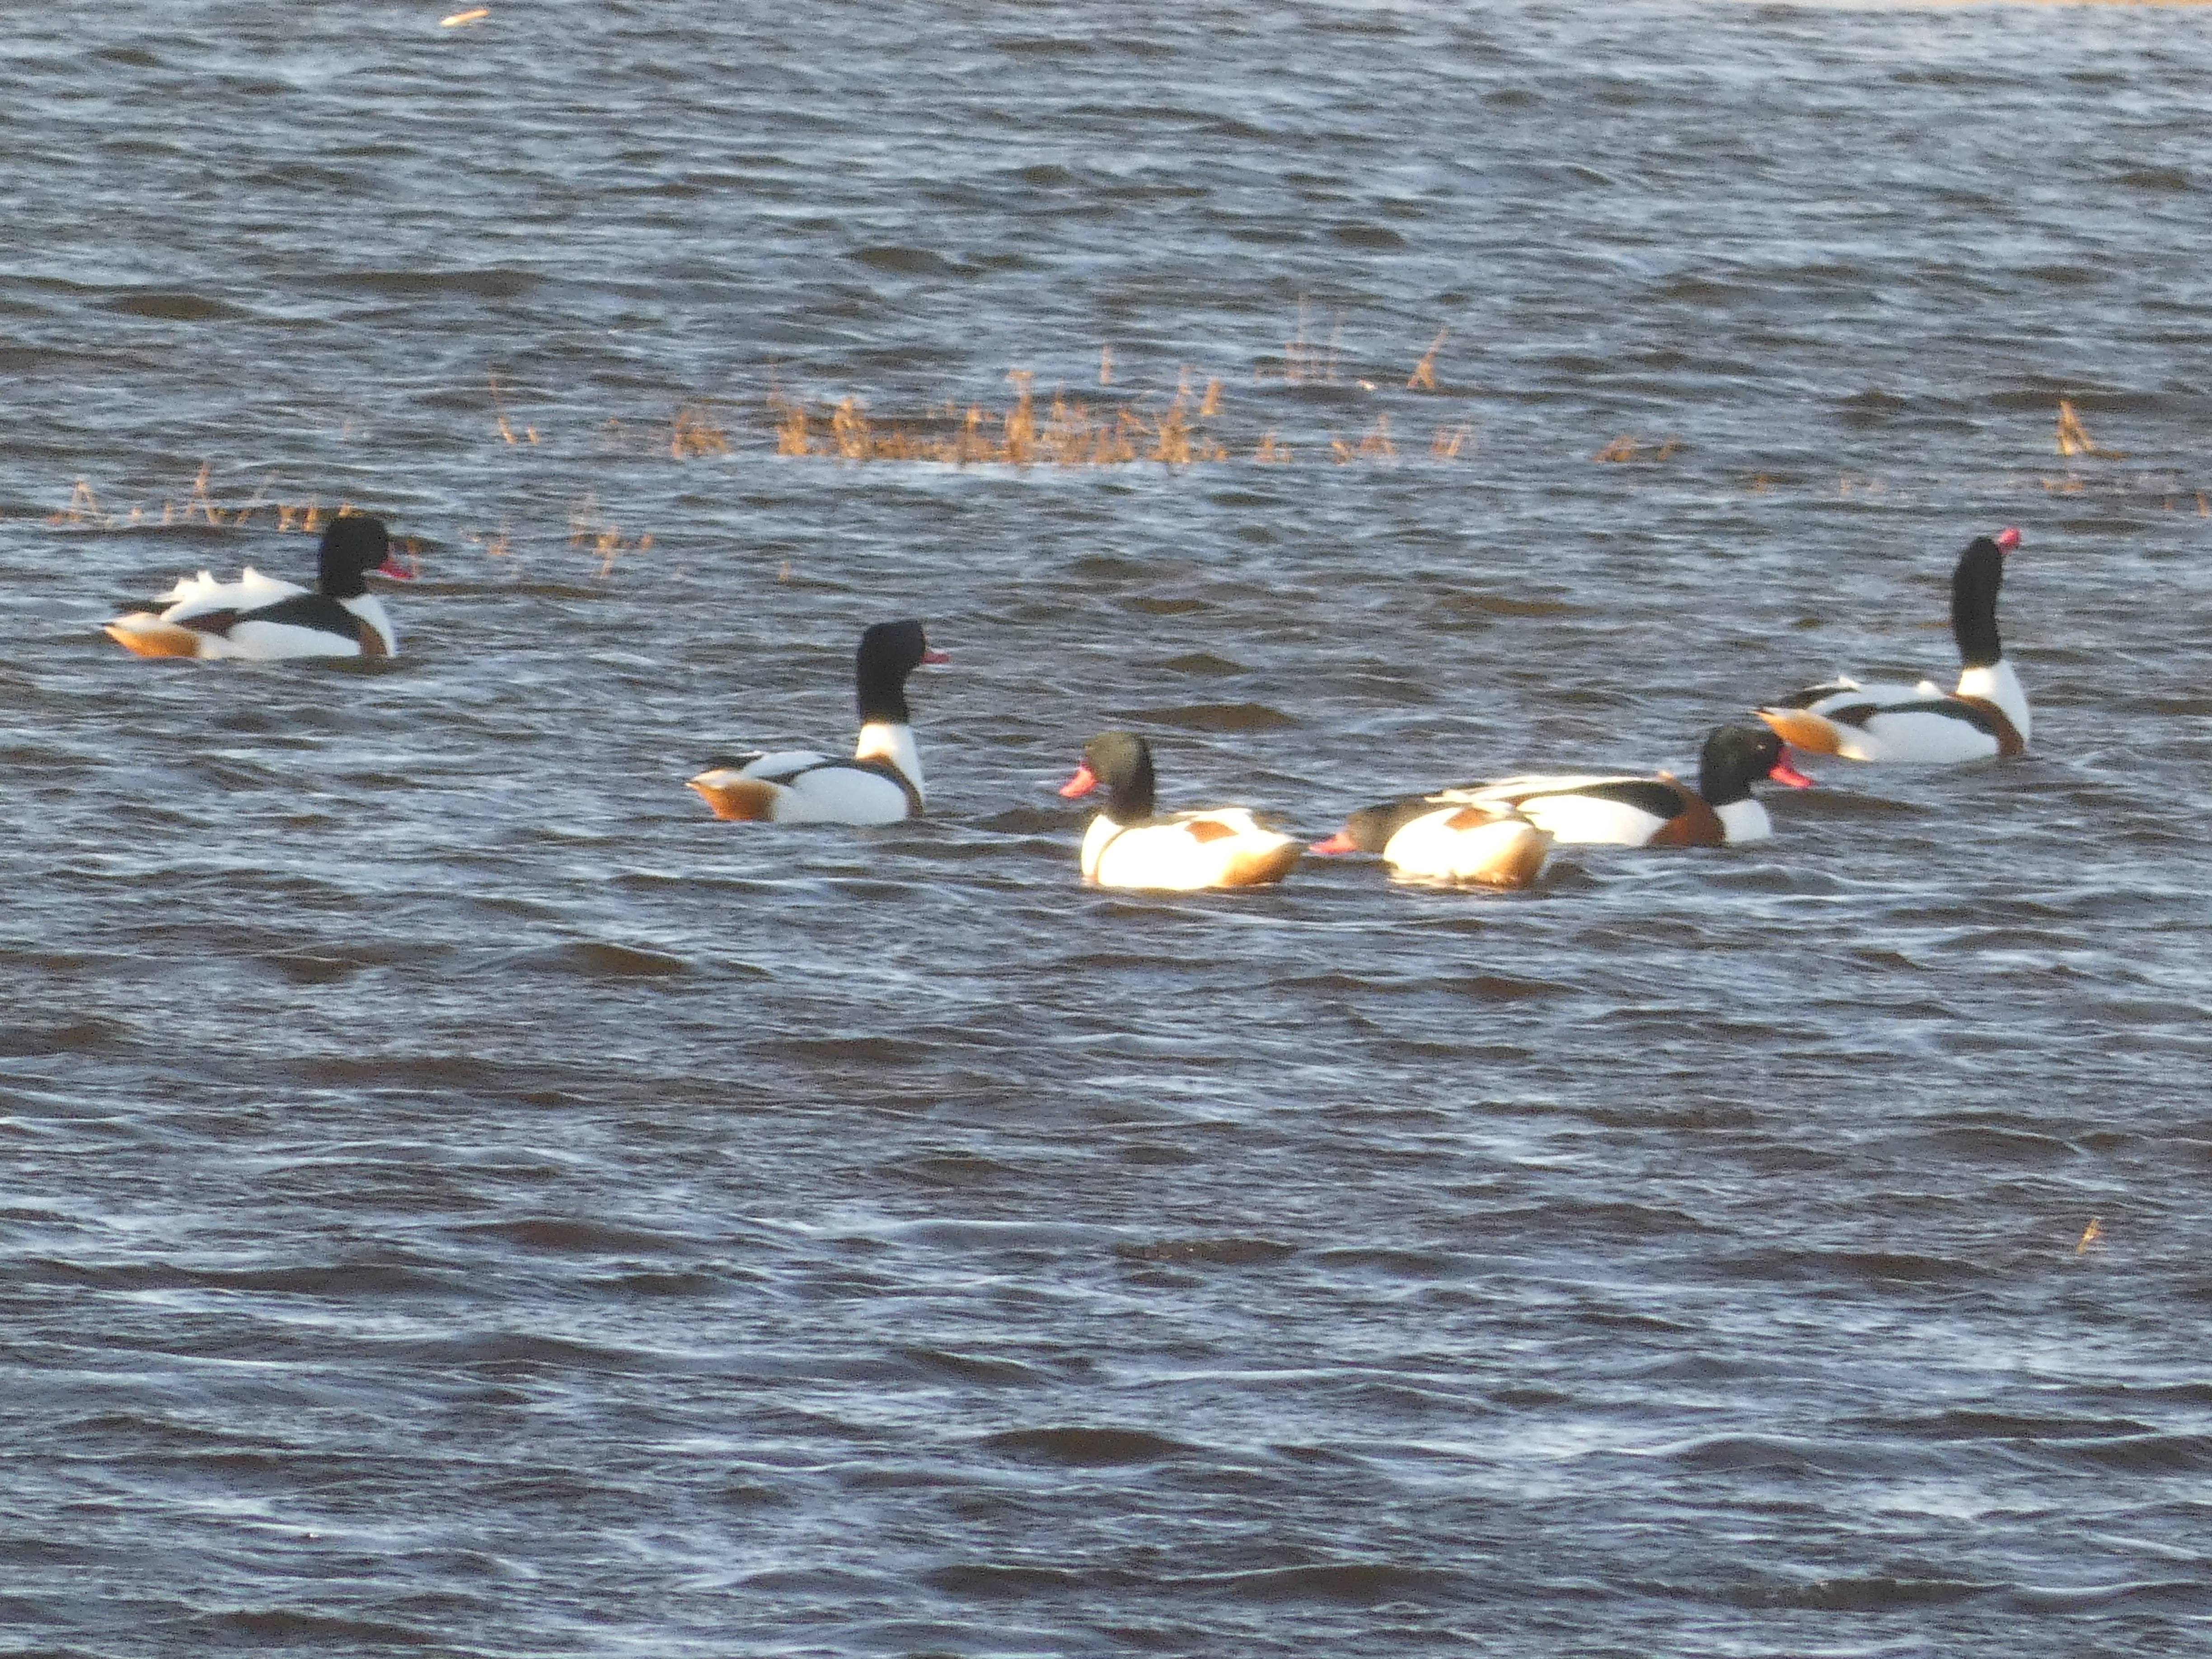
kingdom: Animalia
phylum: Chordata
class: Aves
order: Anseriformes
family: Anatidae
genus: Tadorna
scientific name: Tadorna tadorna
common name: Gravand
